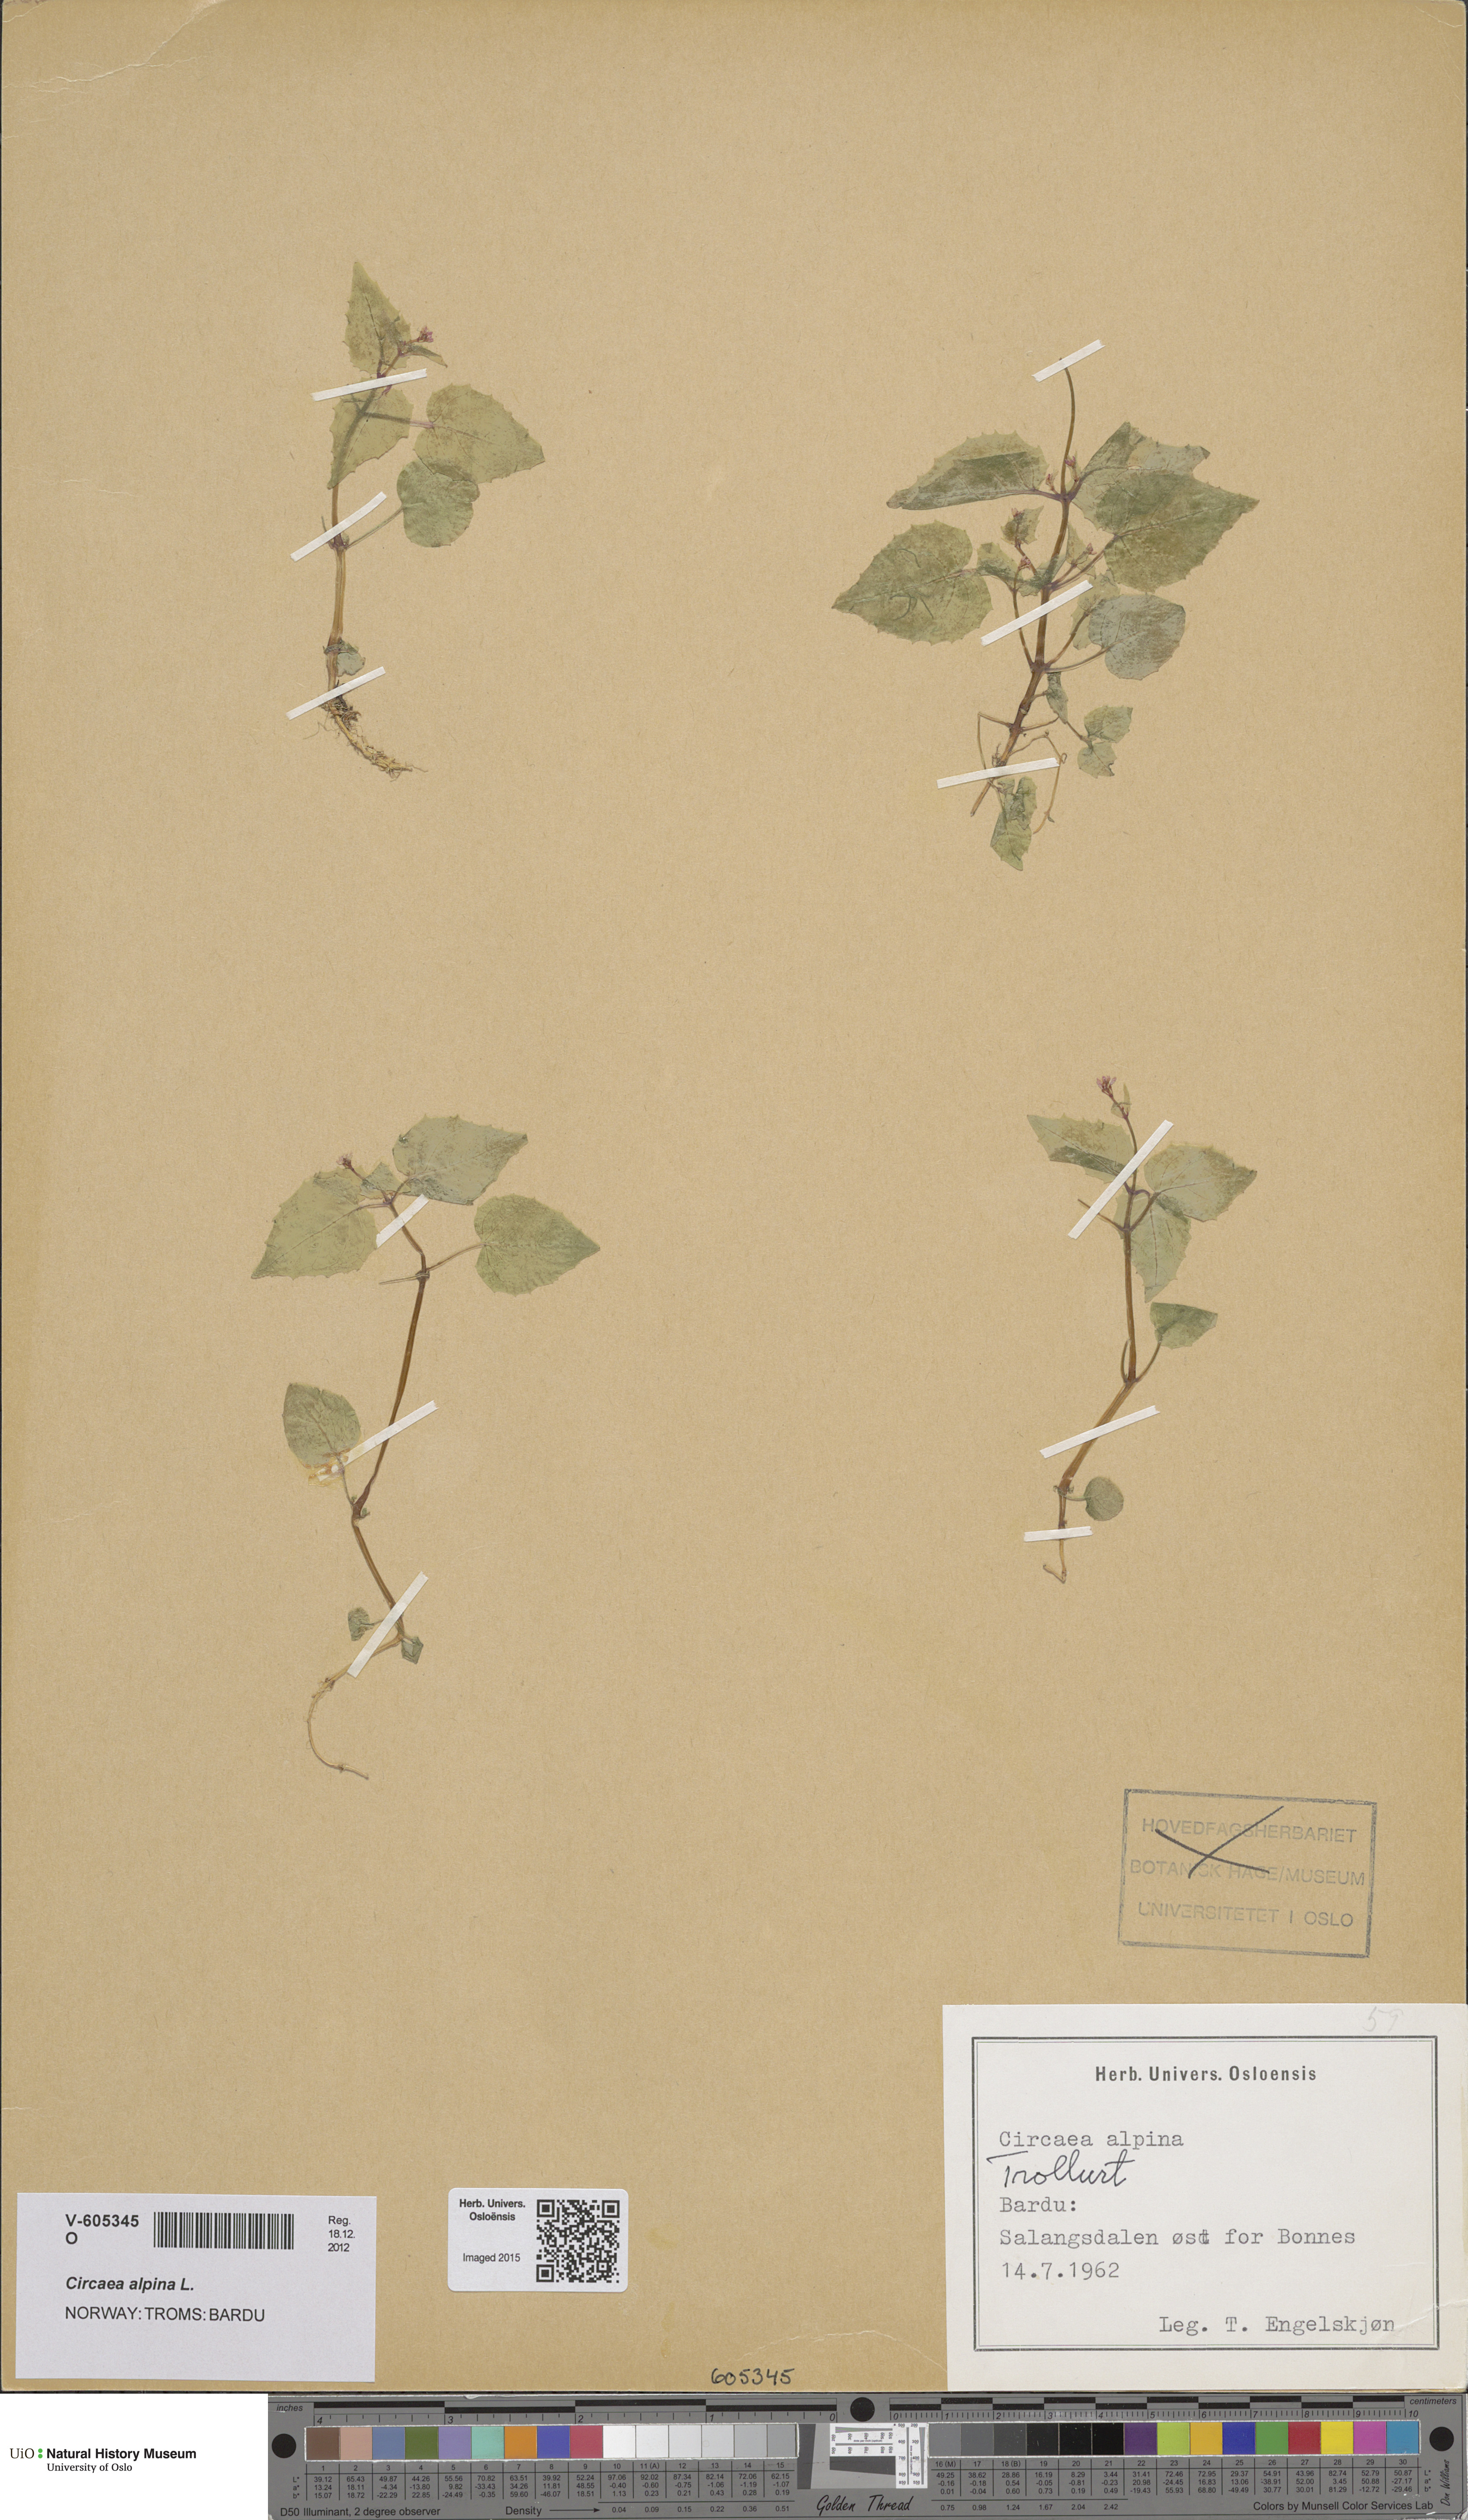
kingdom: Plantae
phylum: Tracheophyta
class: Magnoliopsida
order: Myrtales
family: Onagraceae
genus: Circaea
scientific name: Circaea alpina
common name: Alpine enchanter's-nightshade
